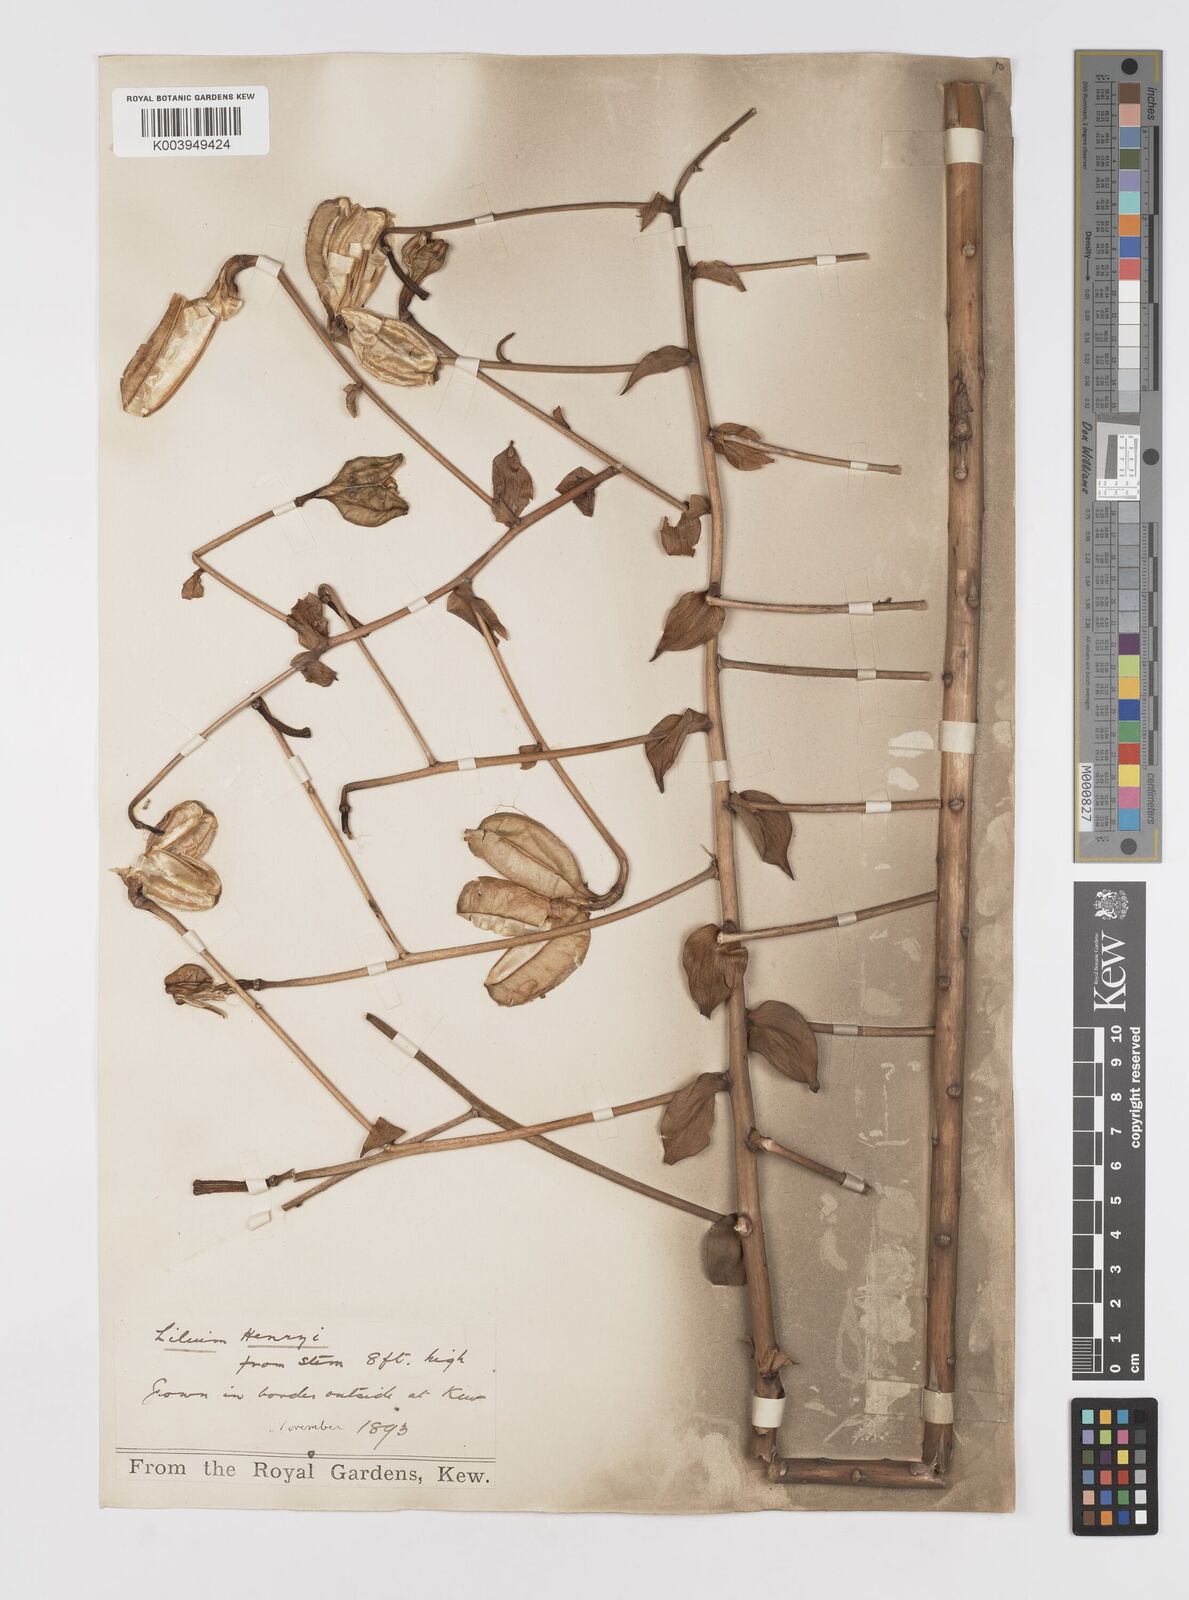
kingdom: Plantae
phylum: Tracheophyta
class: Liliopsida
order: Liliales
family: Liliaceae
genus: Lilium
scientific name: Lilium henryi
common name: Henry's lily
